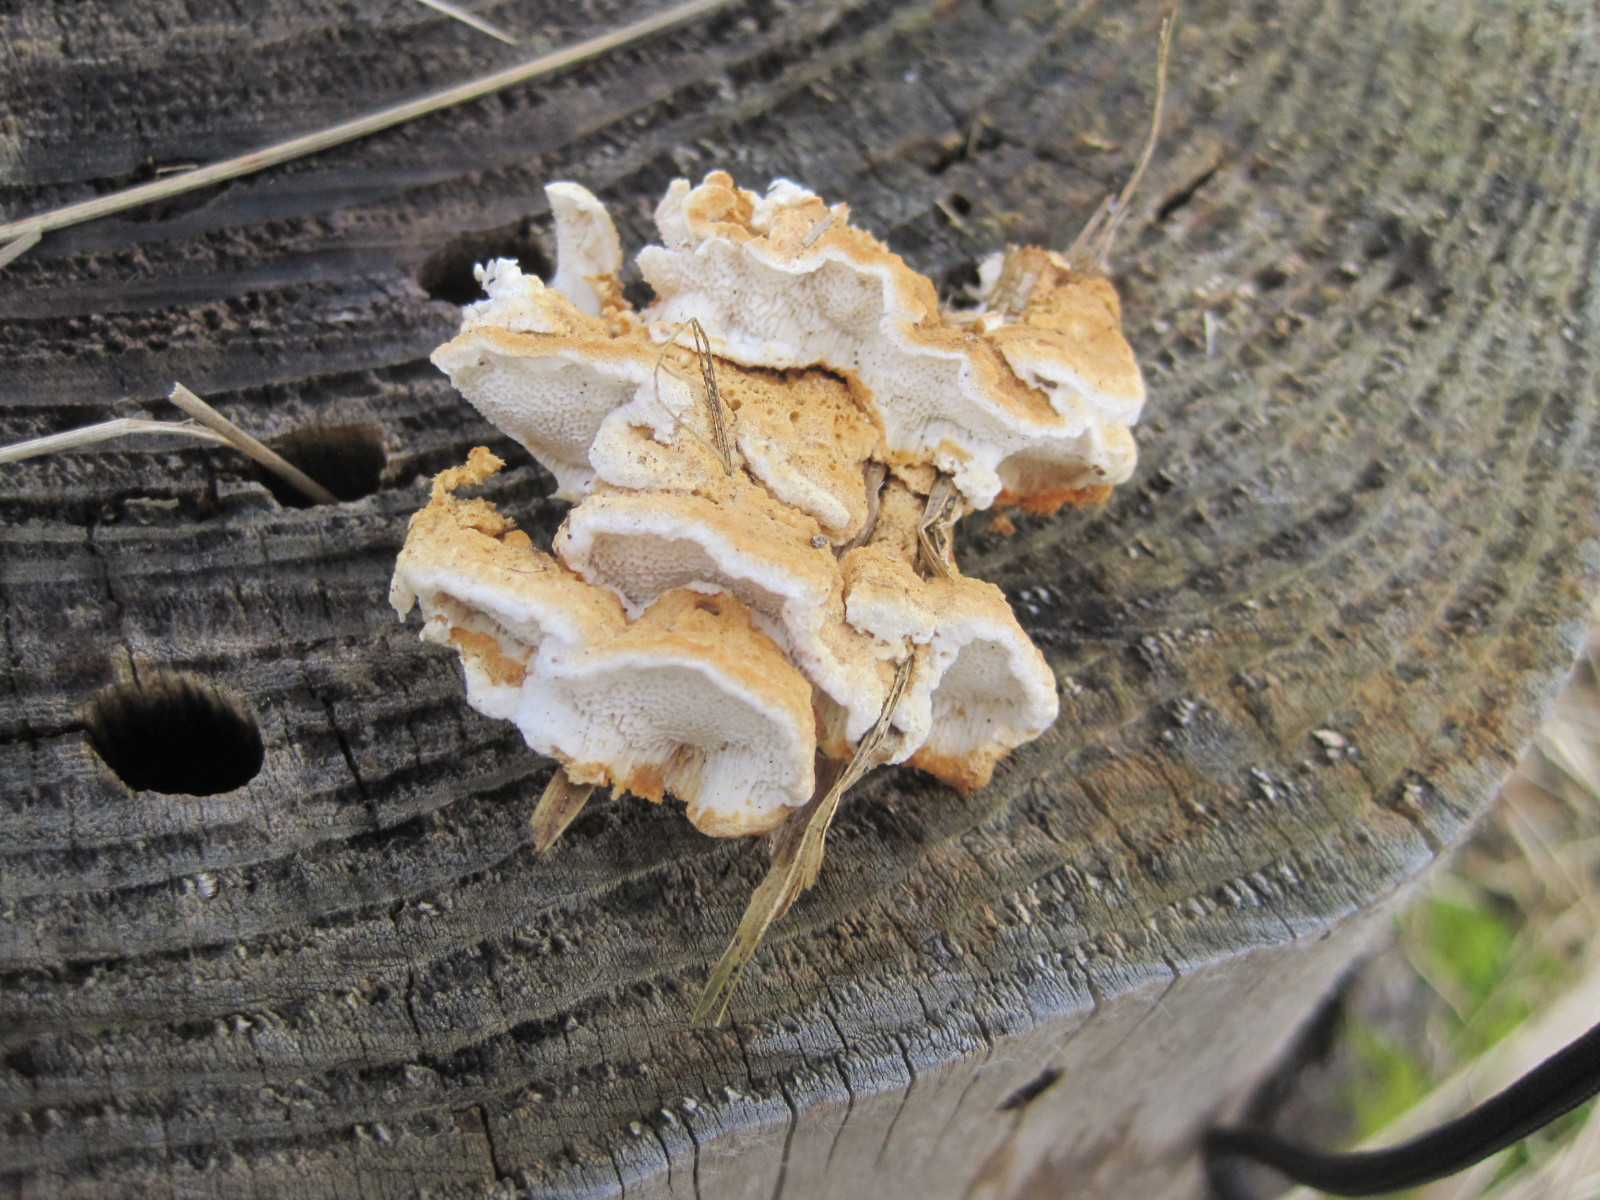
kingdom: Fungi
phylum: Basidiomycota
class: Agaricomycetes
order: Polyporales
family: Fomitopsidaceae
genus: Neoantrodia
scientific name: Neoantrodia serialis
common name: række-sejporesvamp
